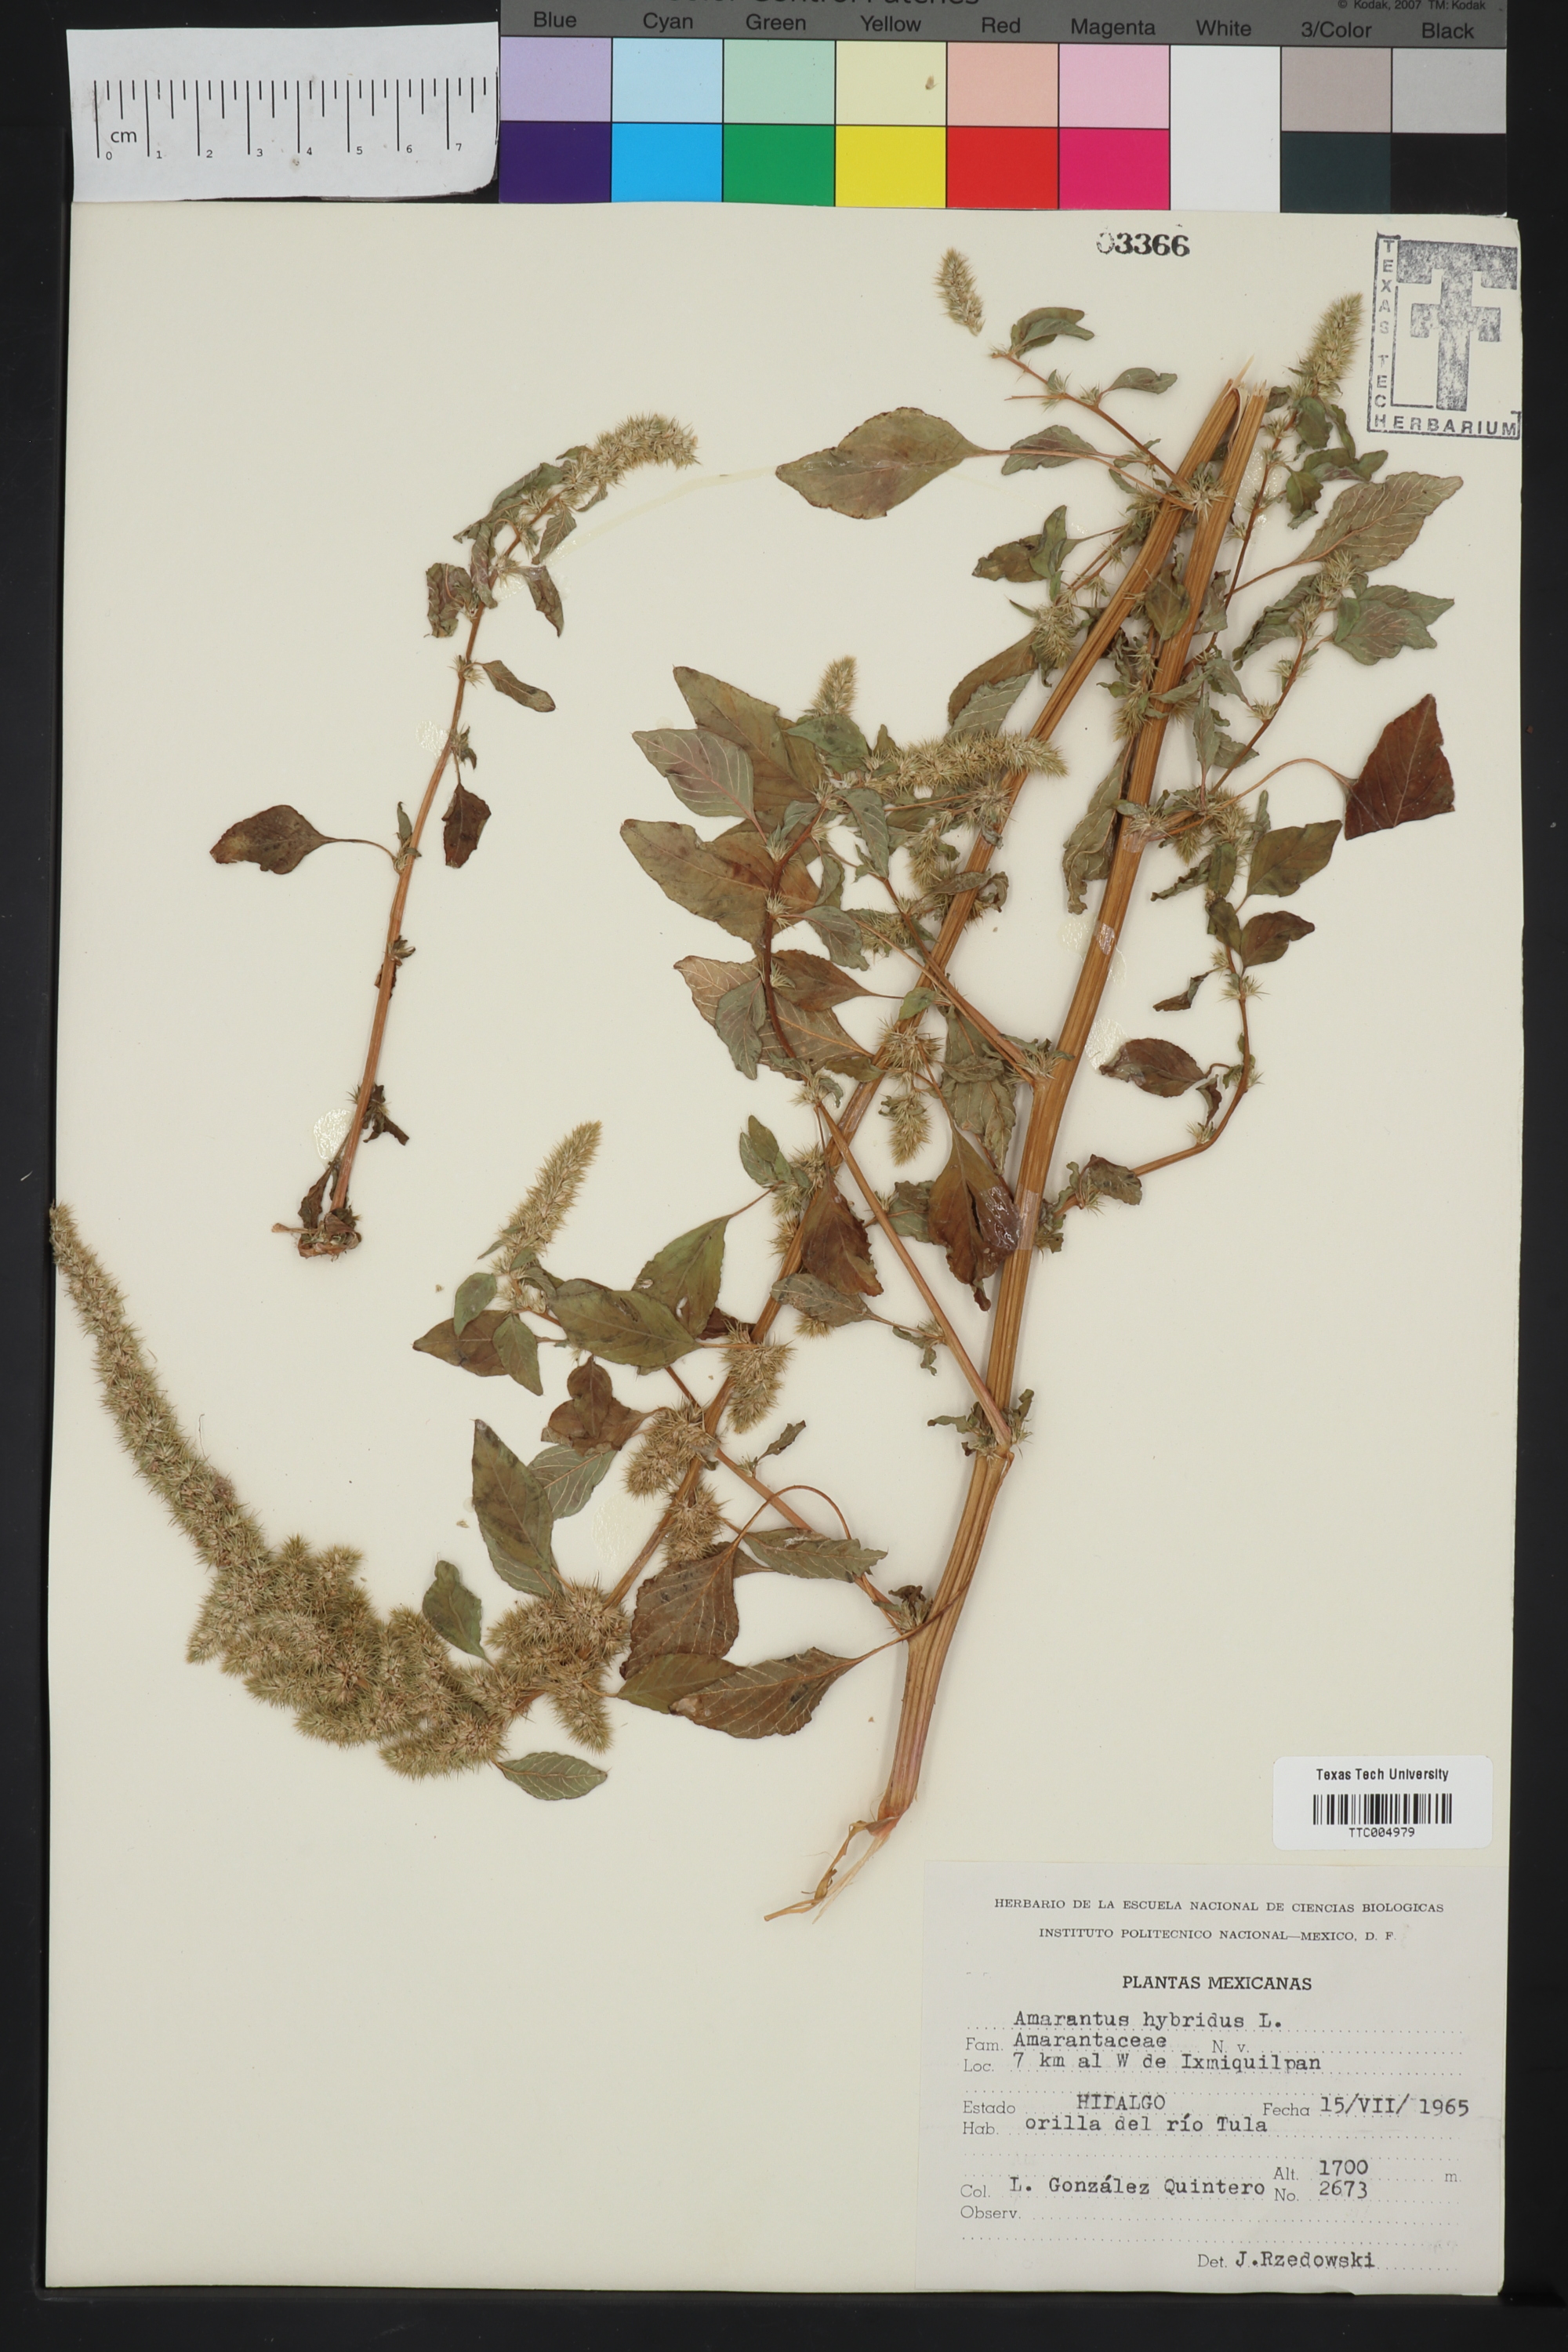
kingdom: Plantae
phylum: Tracheophyta
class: Magnoliopsida
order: Caryophyllales
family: Amaranthaceae
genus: Amaranthus
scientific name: Amaranthus hybridus
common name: Green amaranth
